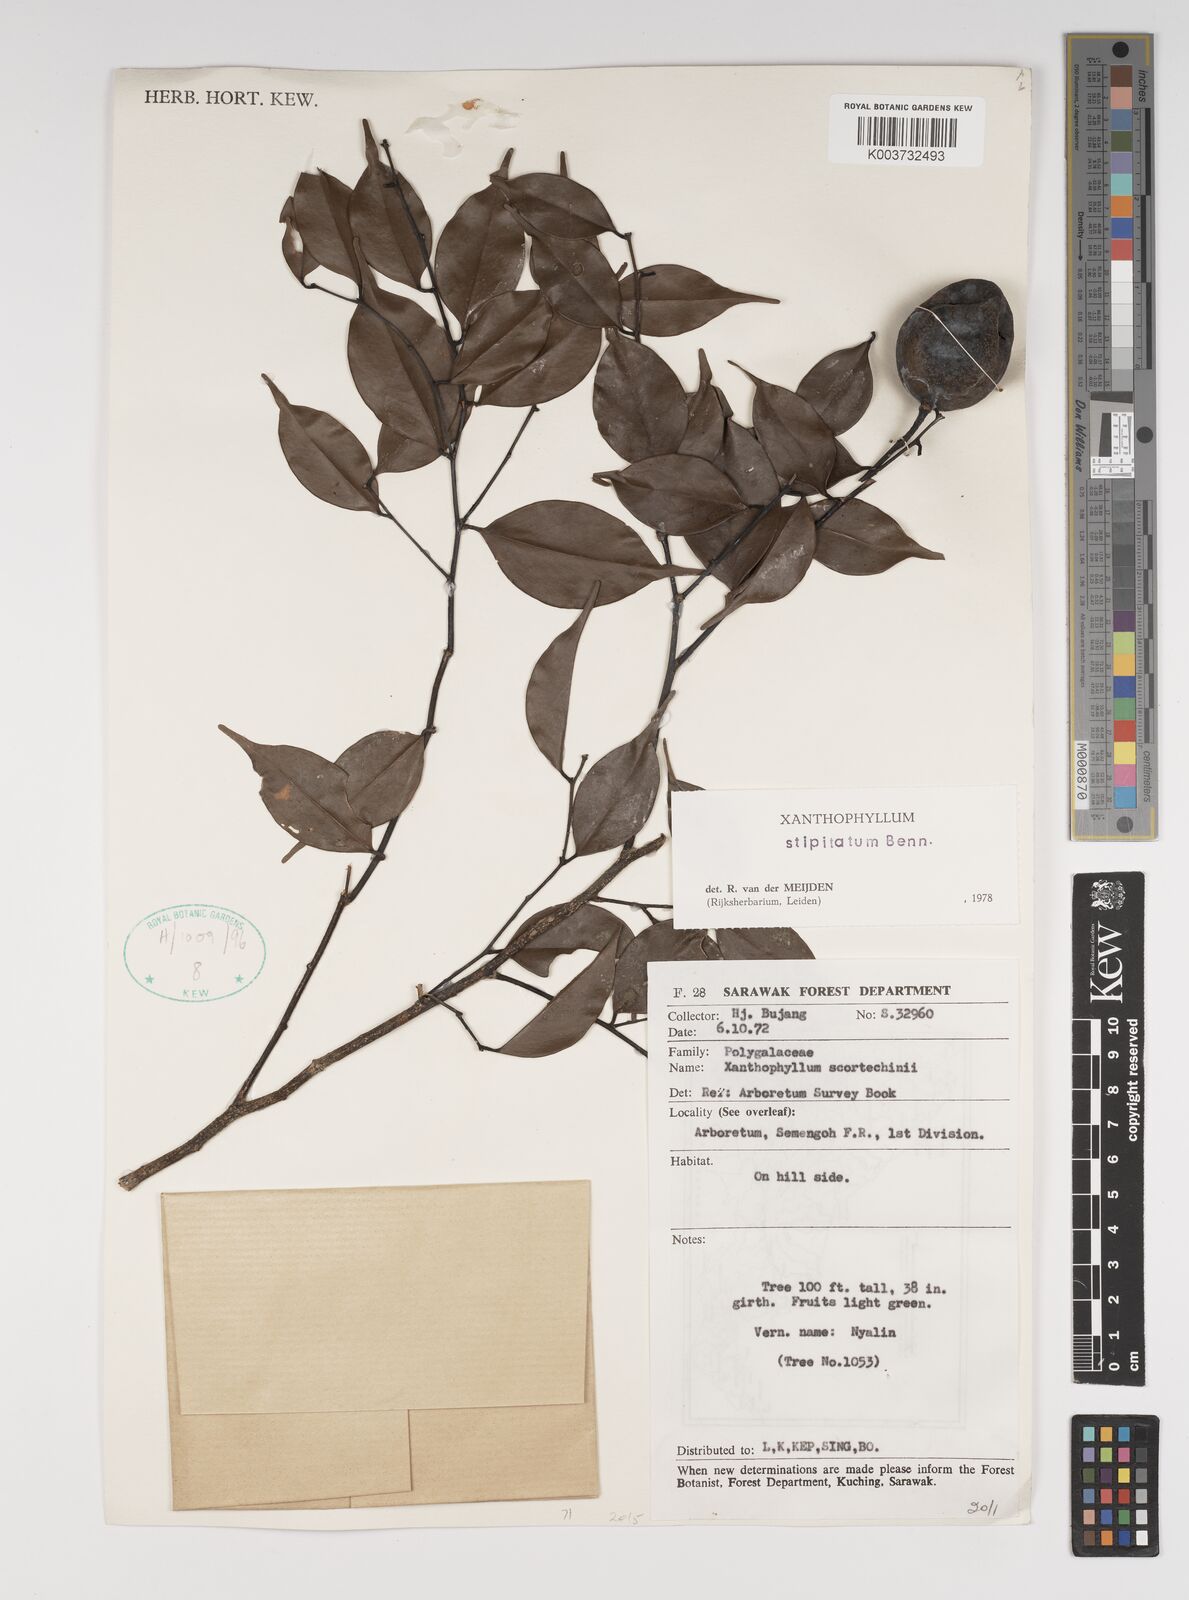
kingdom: Plantae
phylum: Tracheophyta
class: Magnoliopsida
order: Fabales
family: Polygalaceae
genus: Xanthophyllum
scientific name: Xanthophyllum stipitatum
